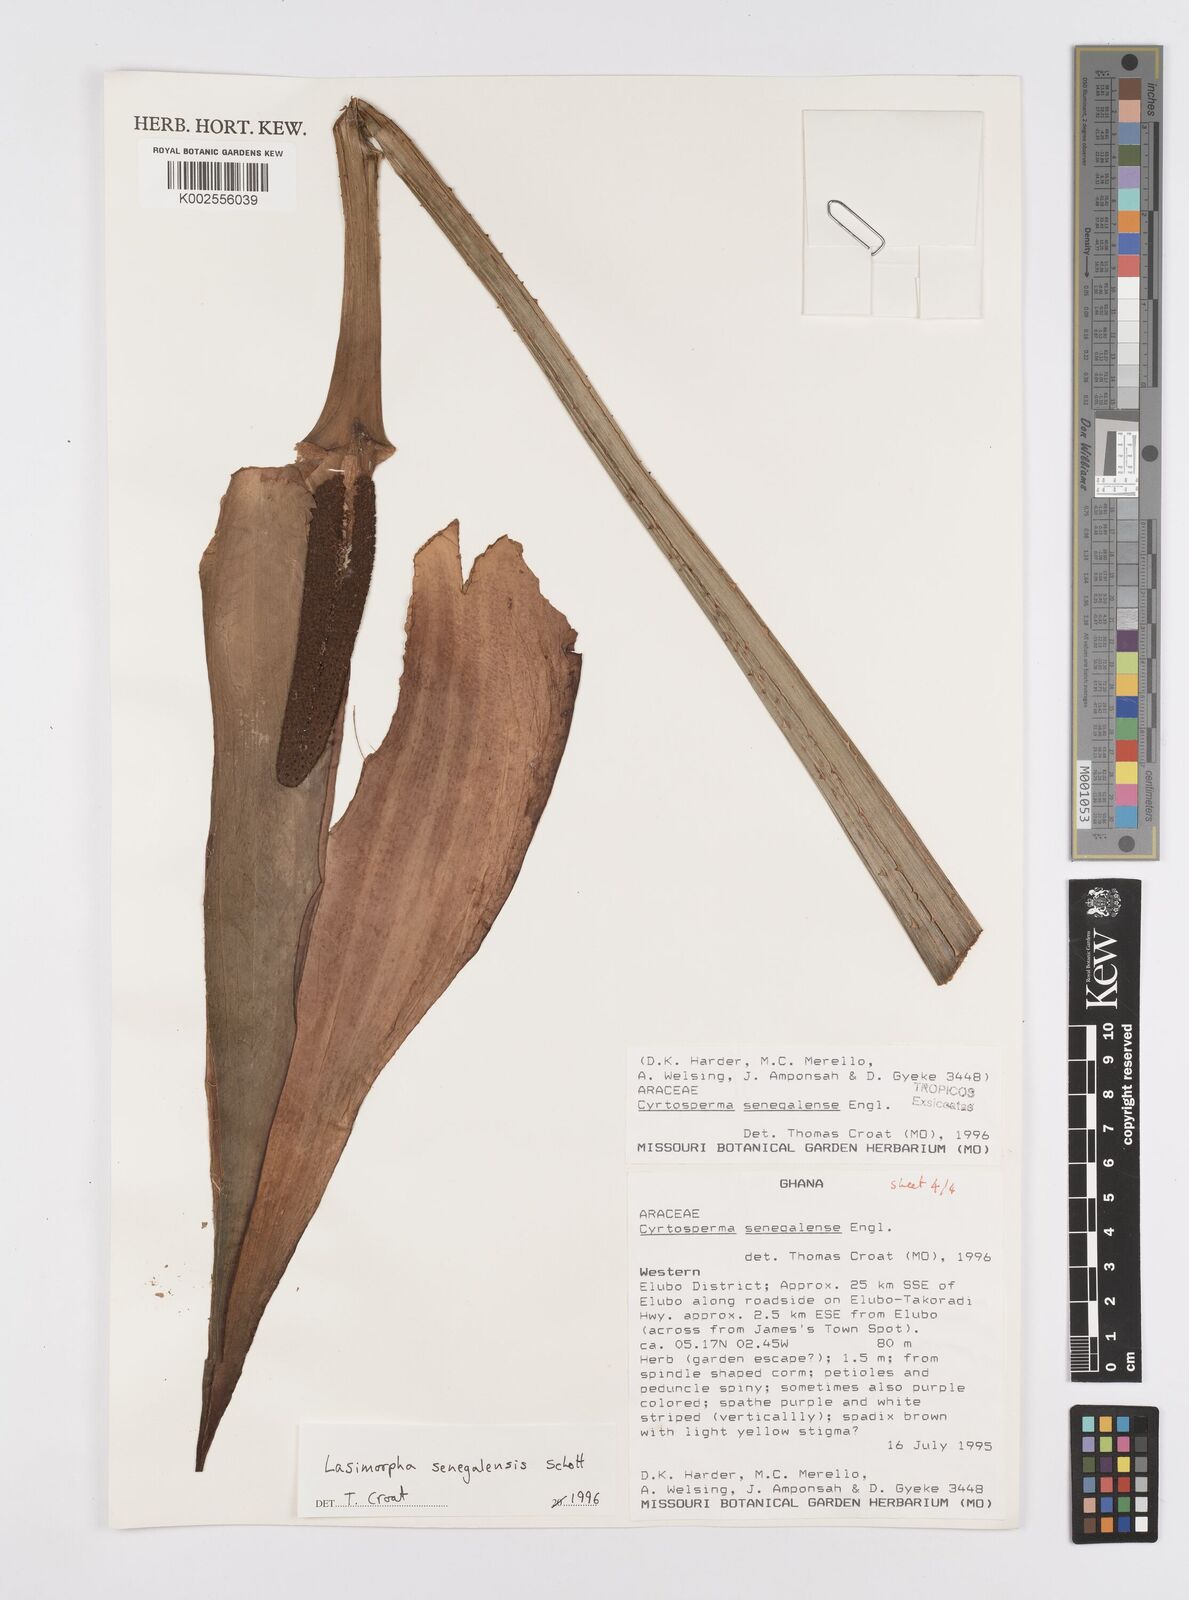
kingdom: Plantae
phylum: Tracheophyta
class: Liliopsida
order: Alismatales
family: Araceae
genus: Lasimorpha
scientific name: Lasimorpha senegalensis
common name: Swamp arum
